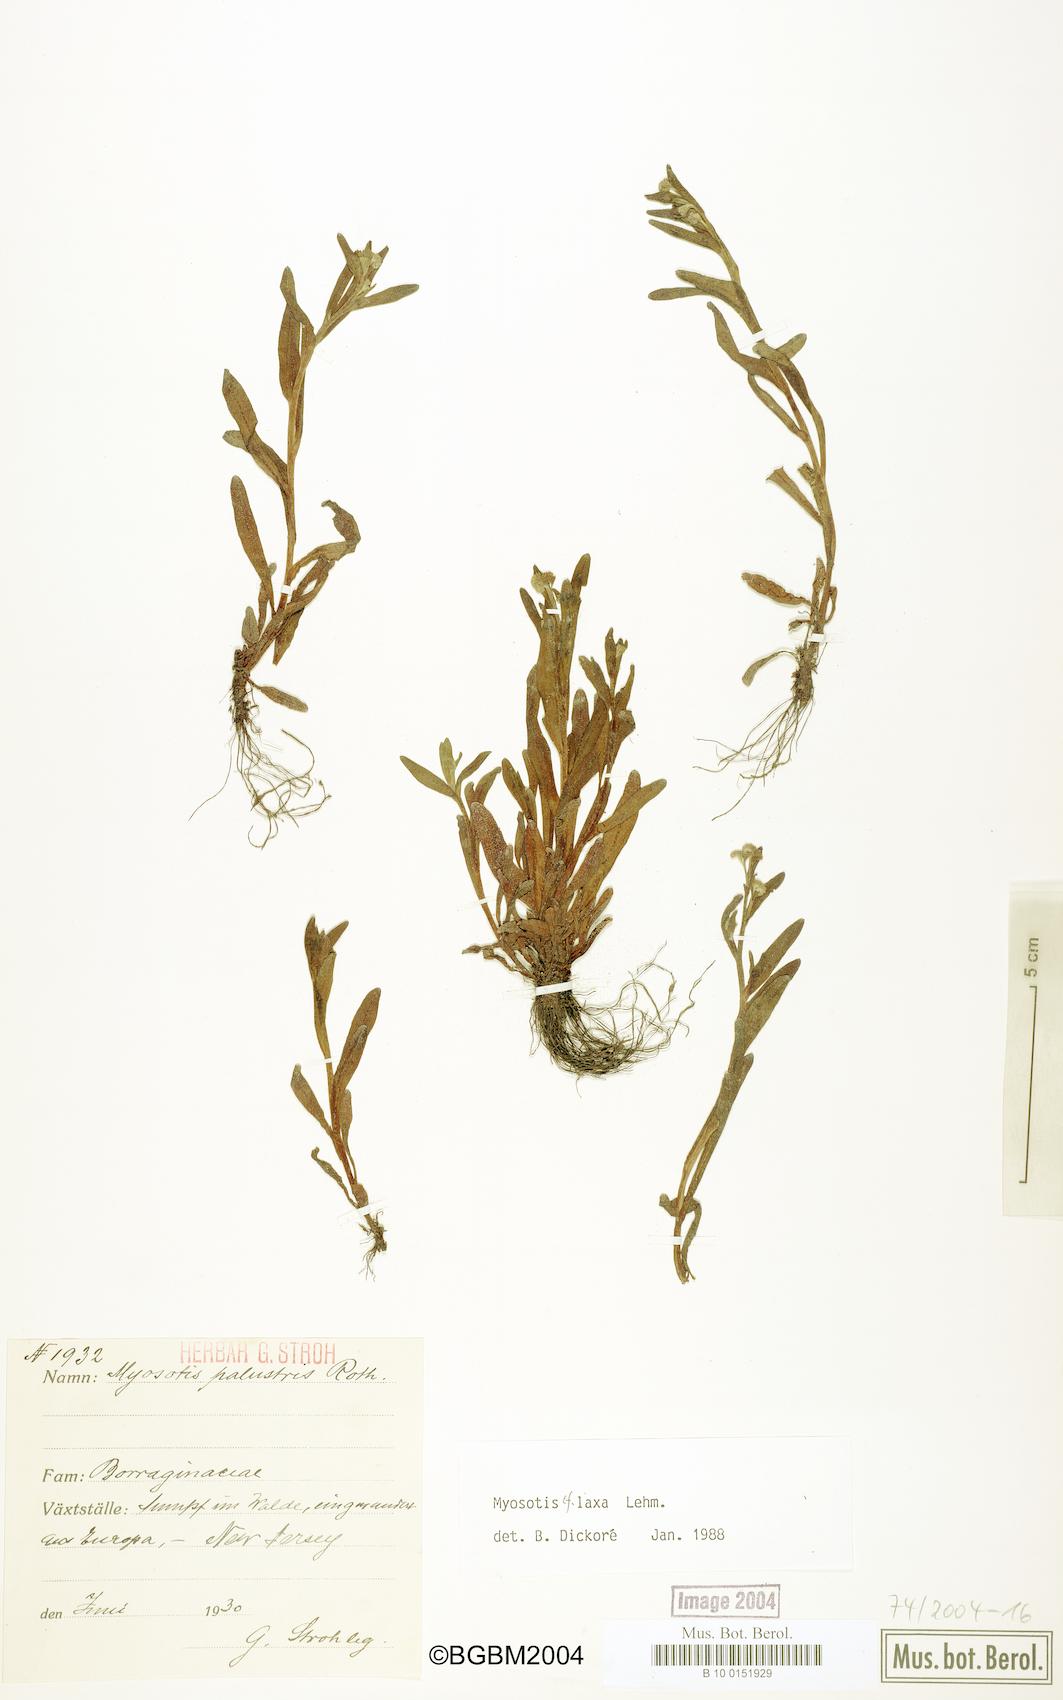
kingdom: Plantae
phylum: Tracheophyta
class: Magnoliopsida
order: Boraginales
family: Boraginaceae
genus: Myosotis
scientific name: Myosotis laxa
